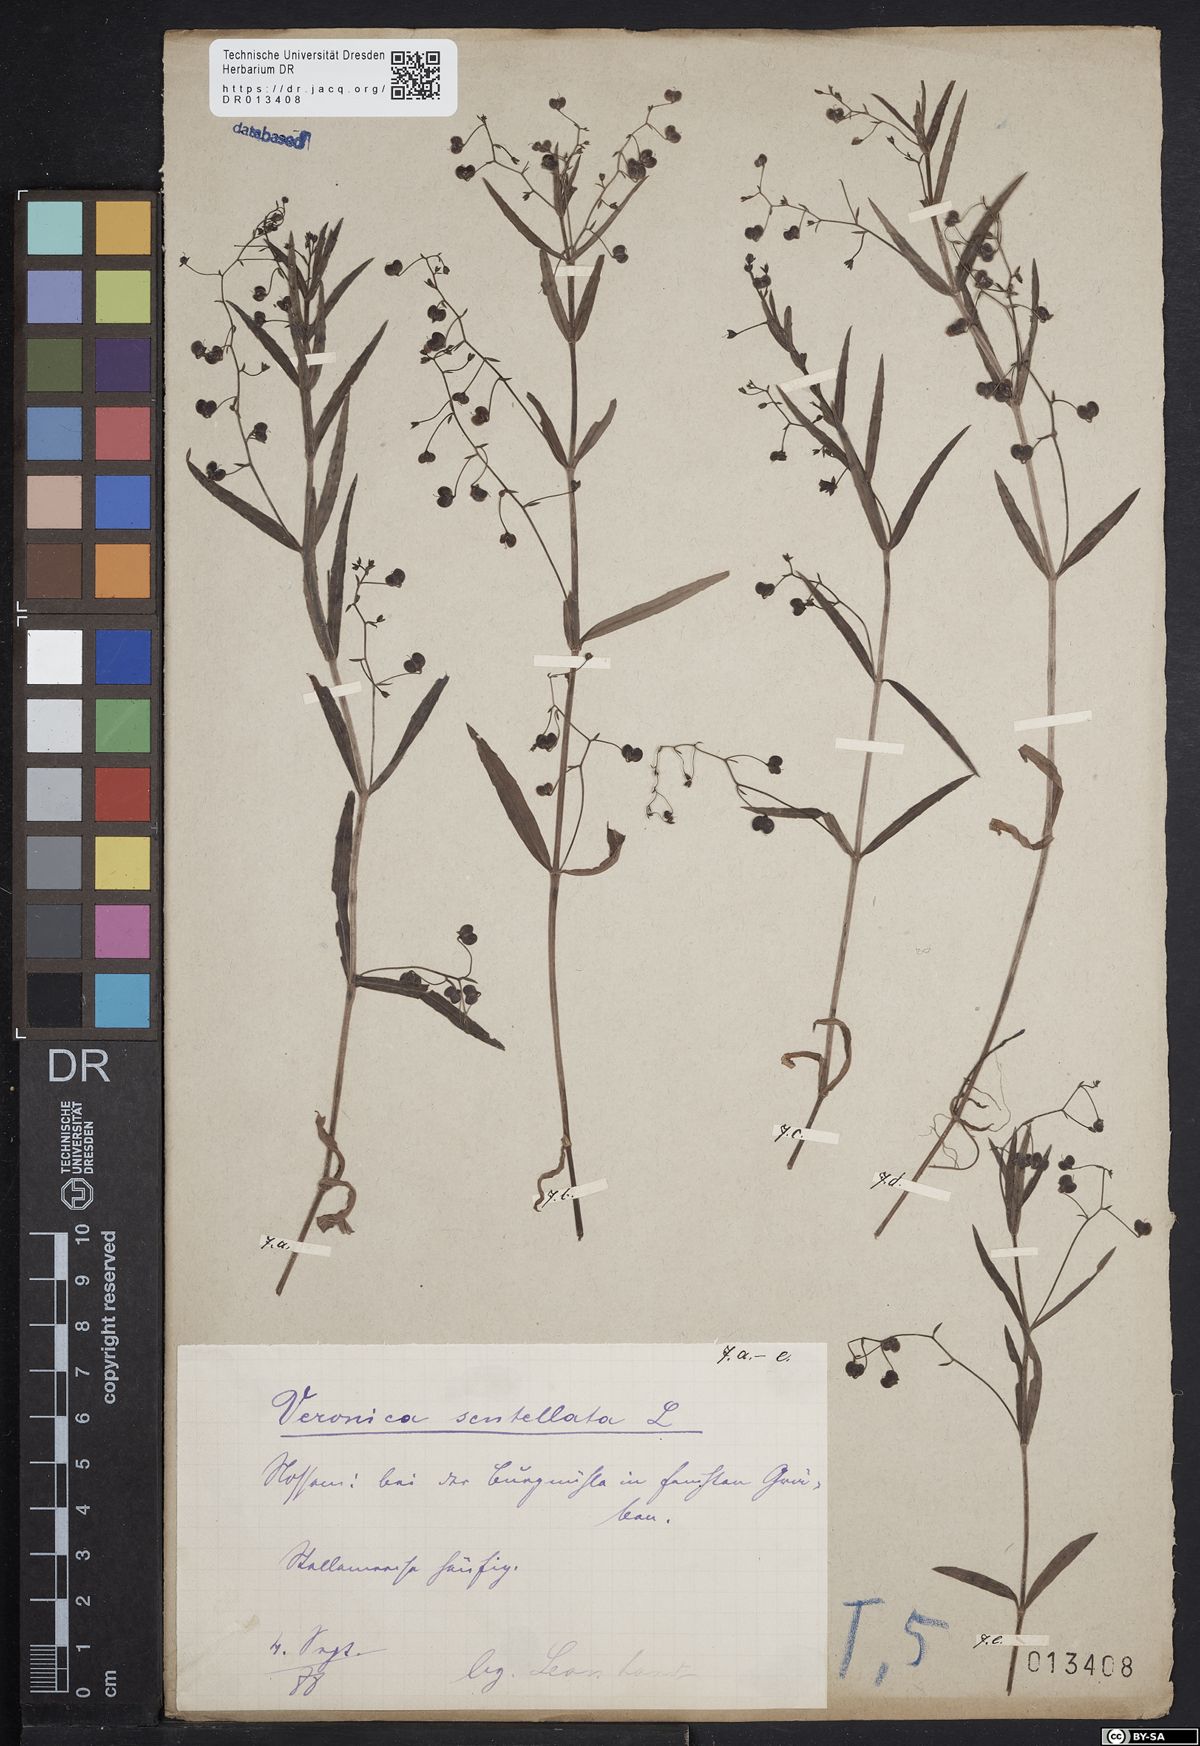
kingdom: Plantae
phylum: Tracheophyta
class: Magnoliopsida
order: Lamiales
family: Plantaginaceae
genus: Veronica
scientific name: Veronica scutellata
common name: Marsh speedwell
